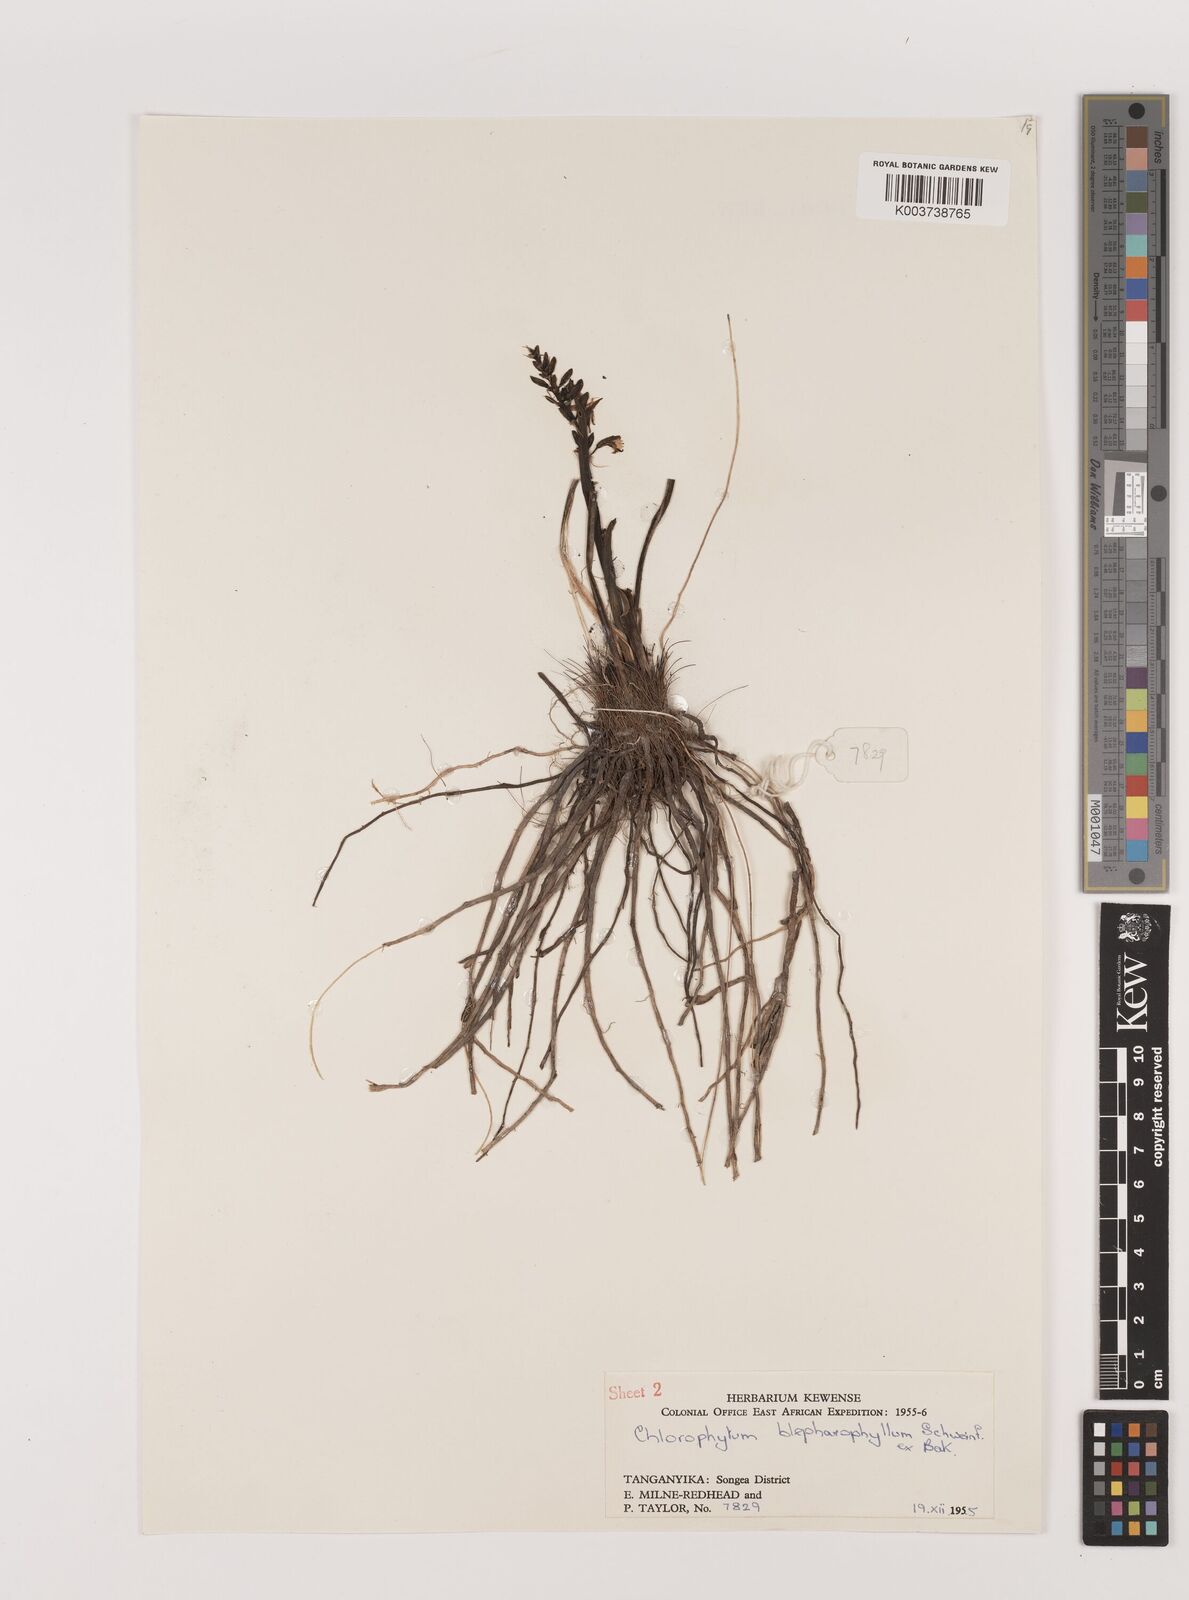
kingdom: Plantae
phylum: Tracheophyta
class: Liliopsida
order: Asparagales
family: Asparagaceae
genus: Chlorophytum
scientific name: Chlorophytum blepharophyllum
